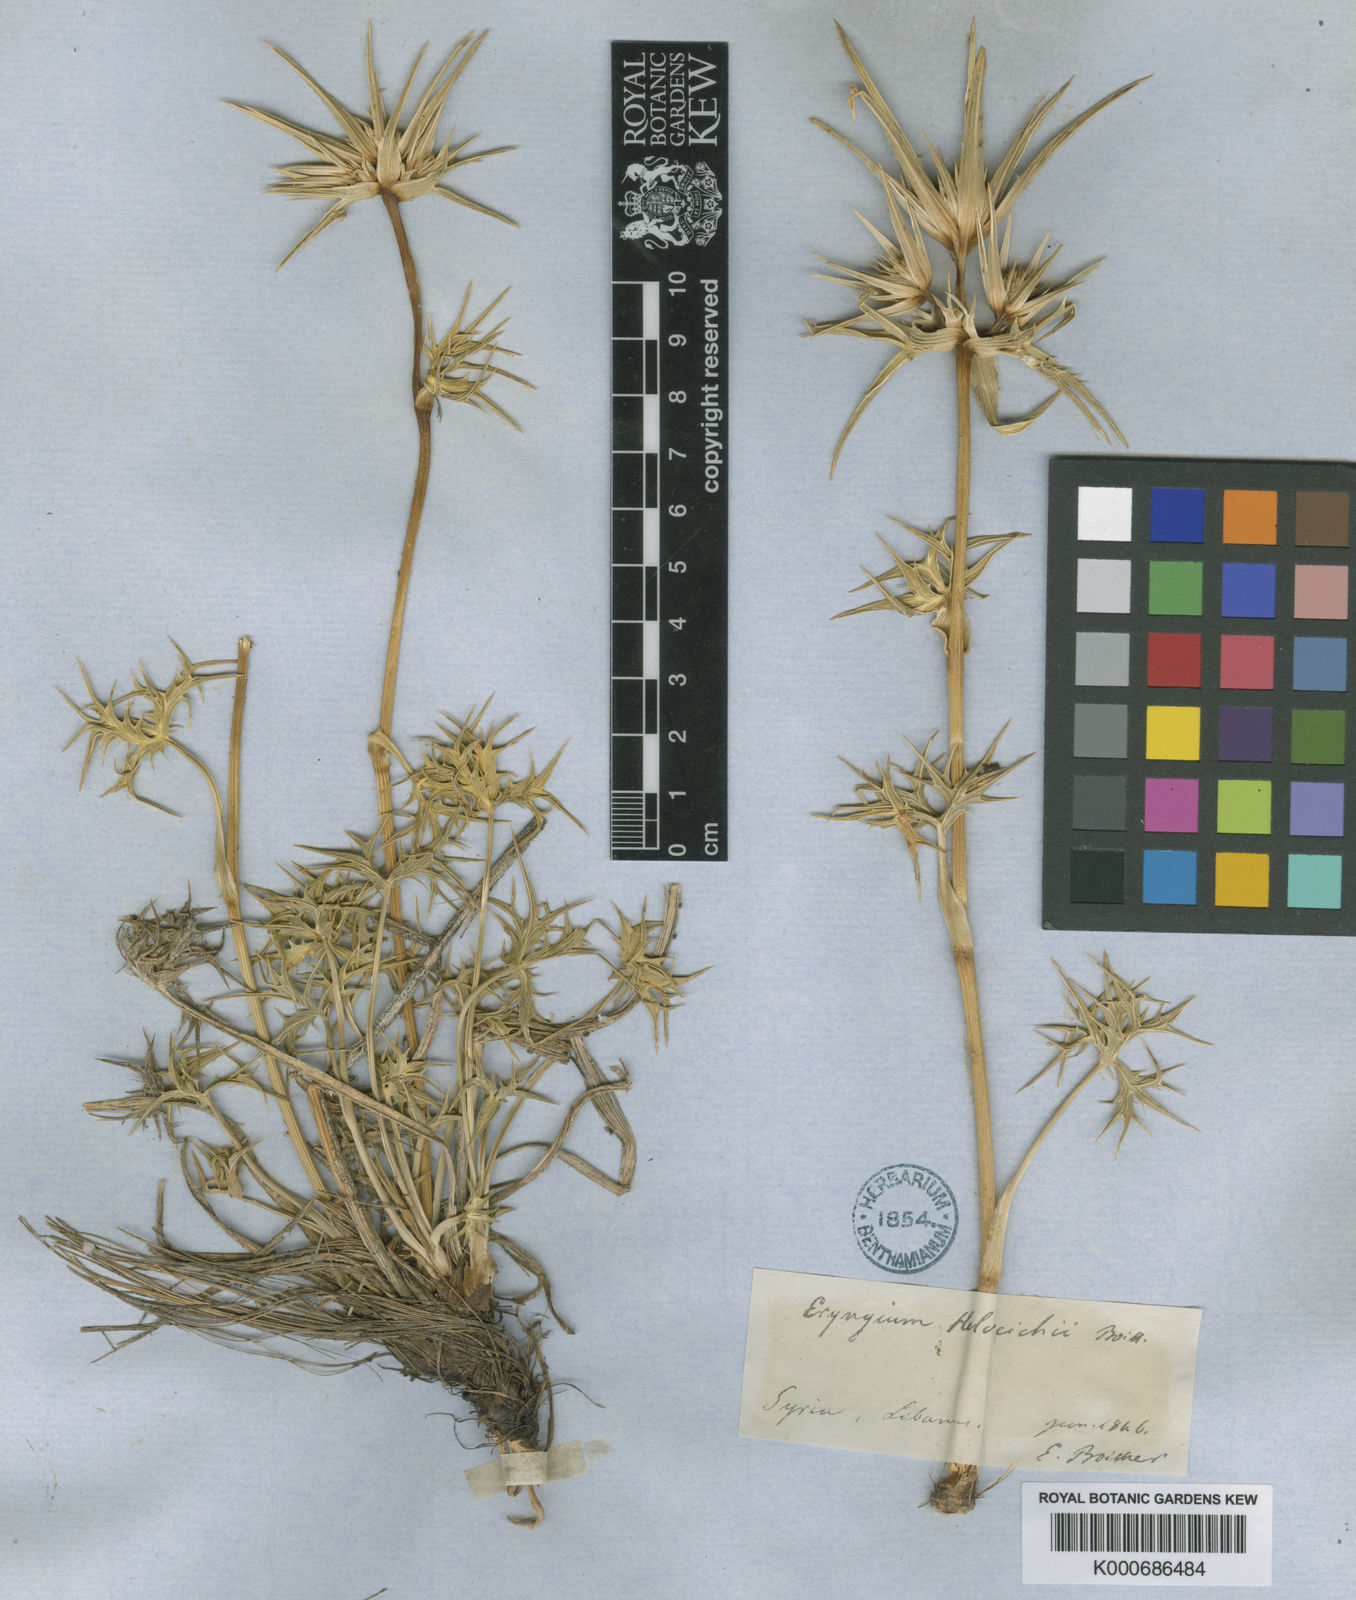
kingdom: Plantae
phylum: Tracheophyta
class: Magnoliopsida
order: Apiales
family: Apiaceae
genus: Eryngium
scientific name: Eryngium heldreichii
